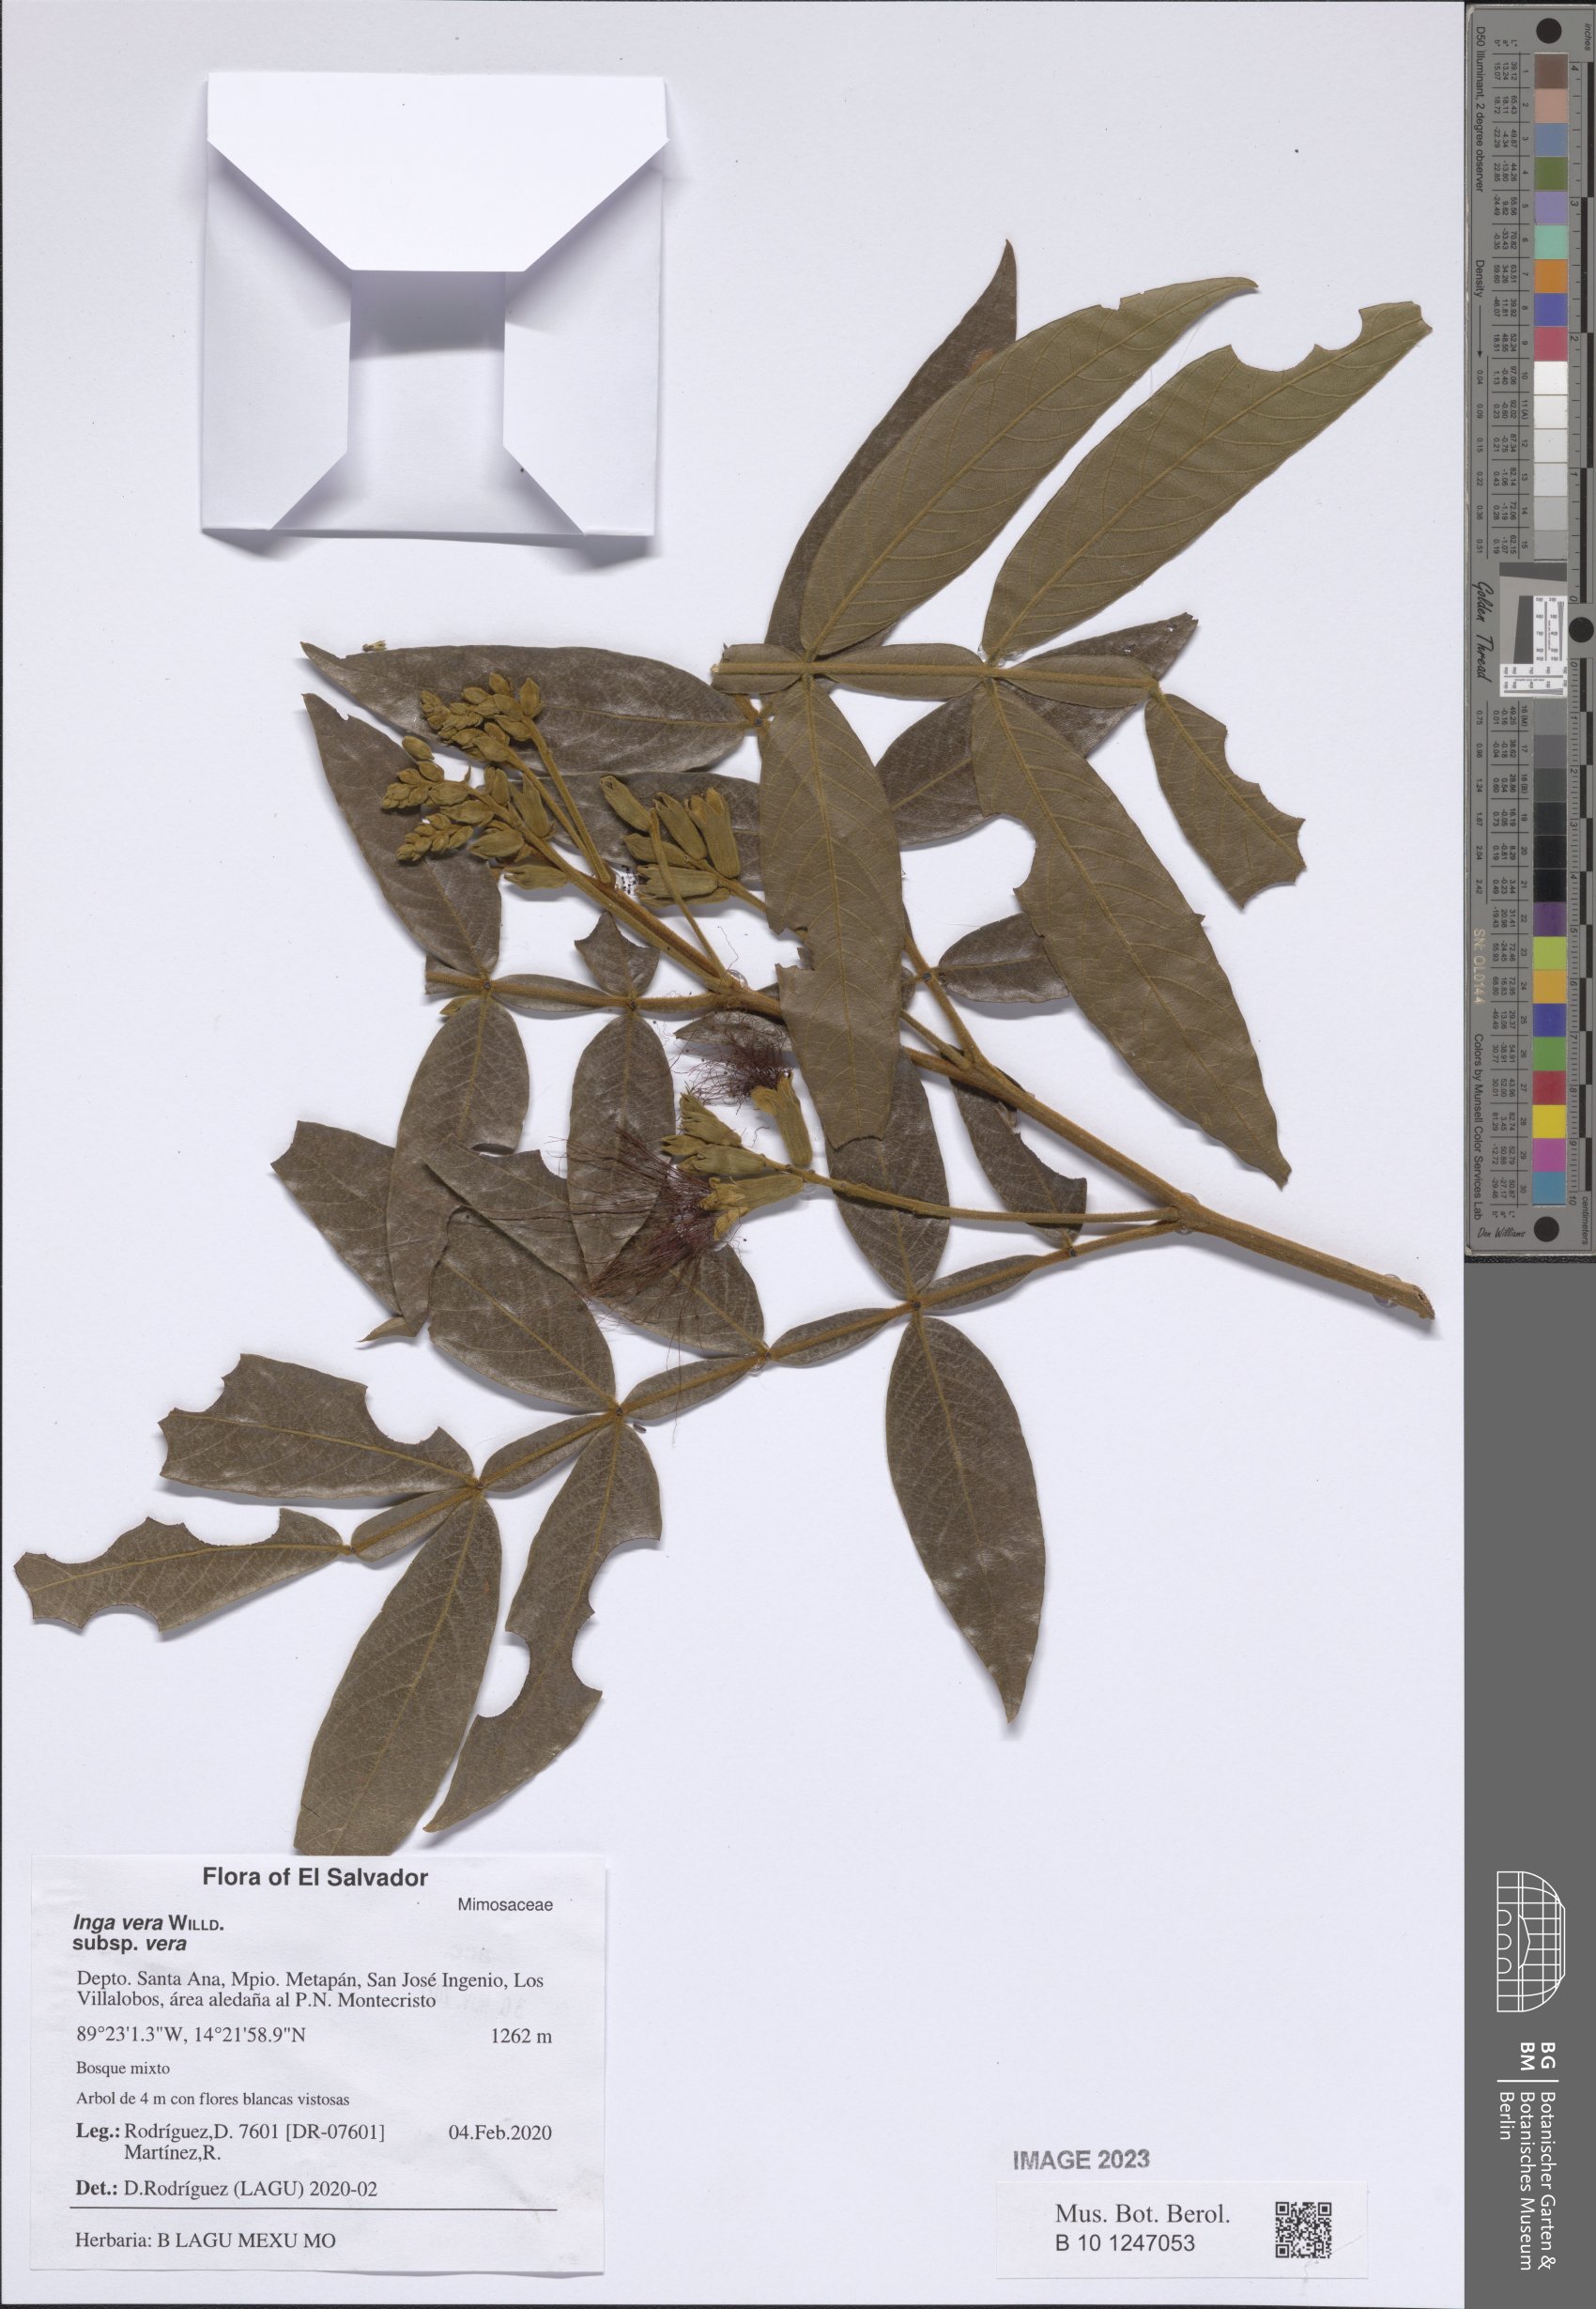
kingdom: Plantae
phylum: Tracheophyta
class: Magnoliopsida
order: Fabales
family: Fabaceae
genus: Inga
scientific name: Inga vera
